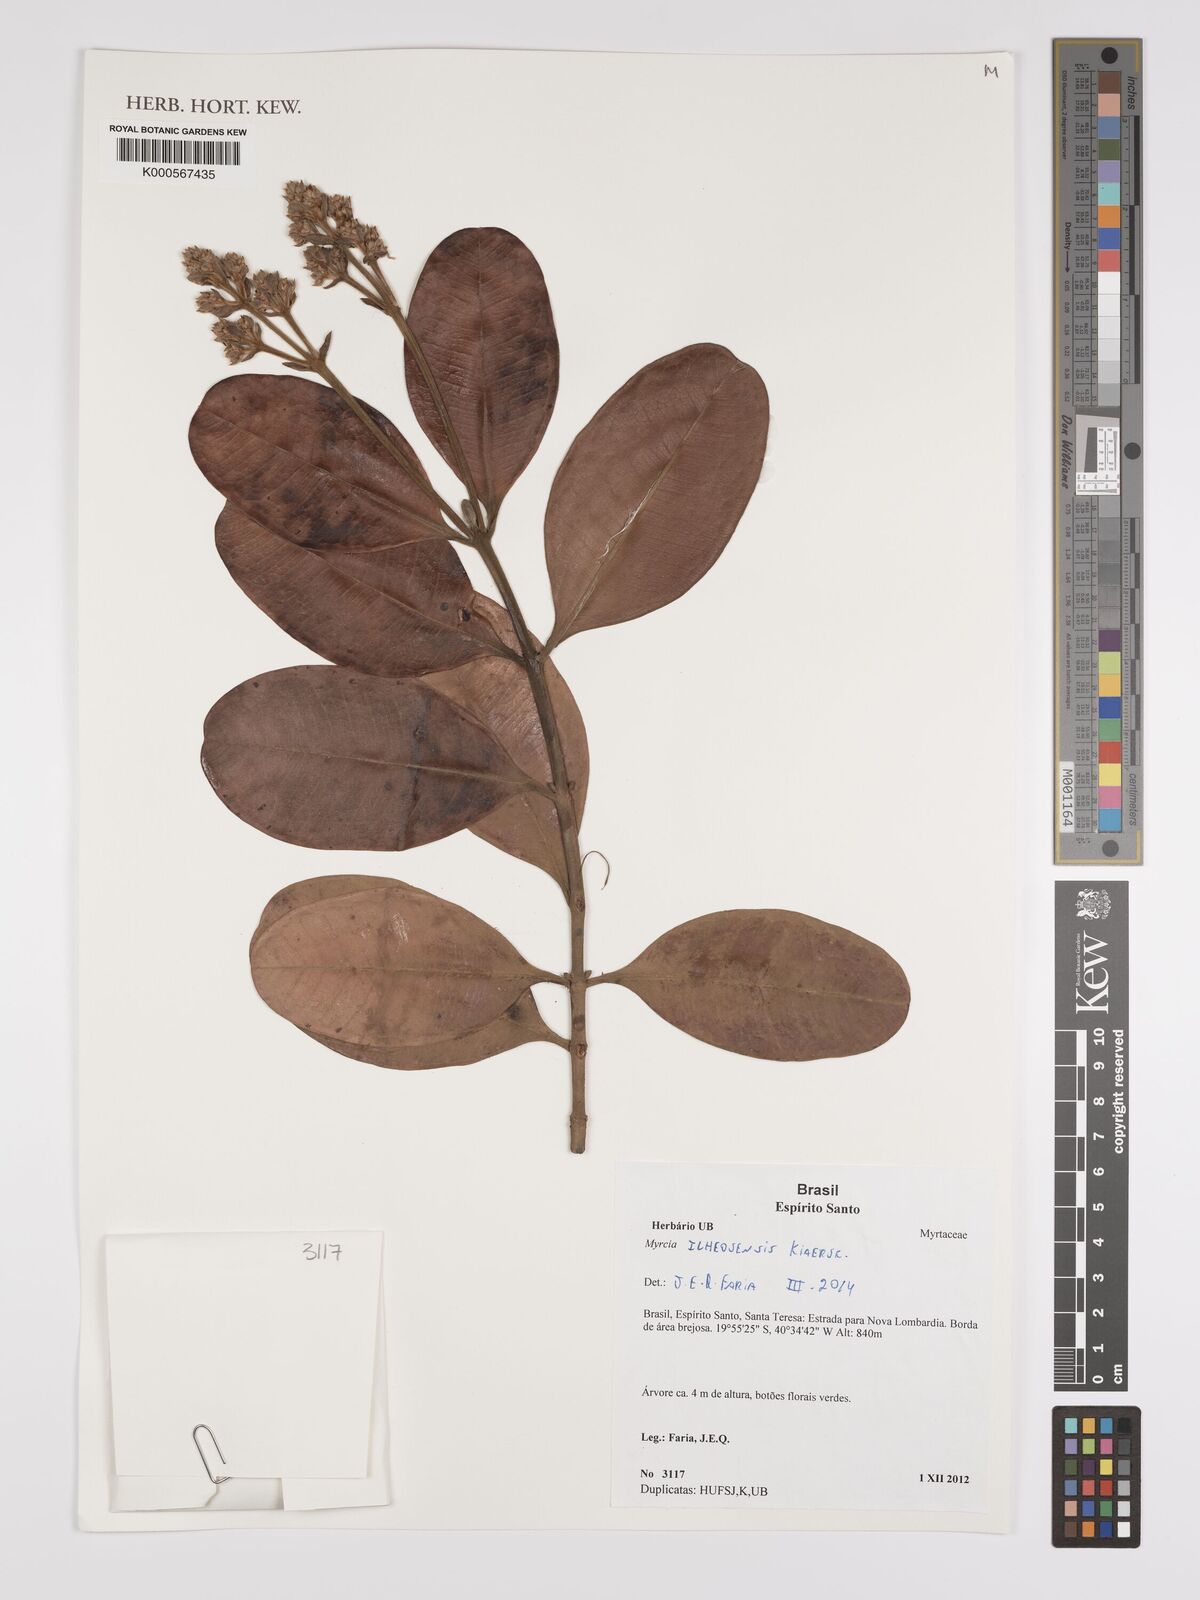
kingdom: Plantae
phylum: Tracheophyta
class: Magnoliopsida
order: Myrtales
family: Myrtaceae
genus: Myrcia
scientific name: Myrcia ilheosensis
